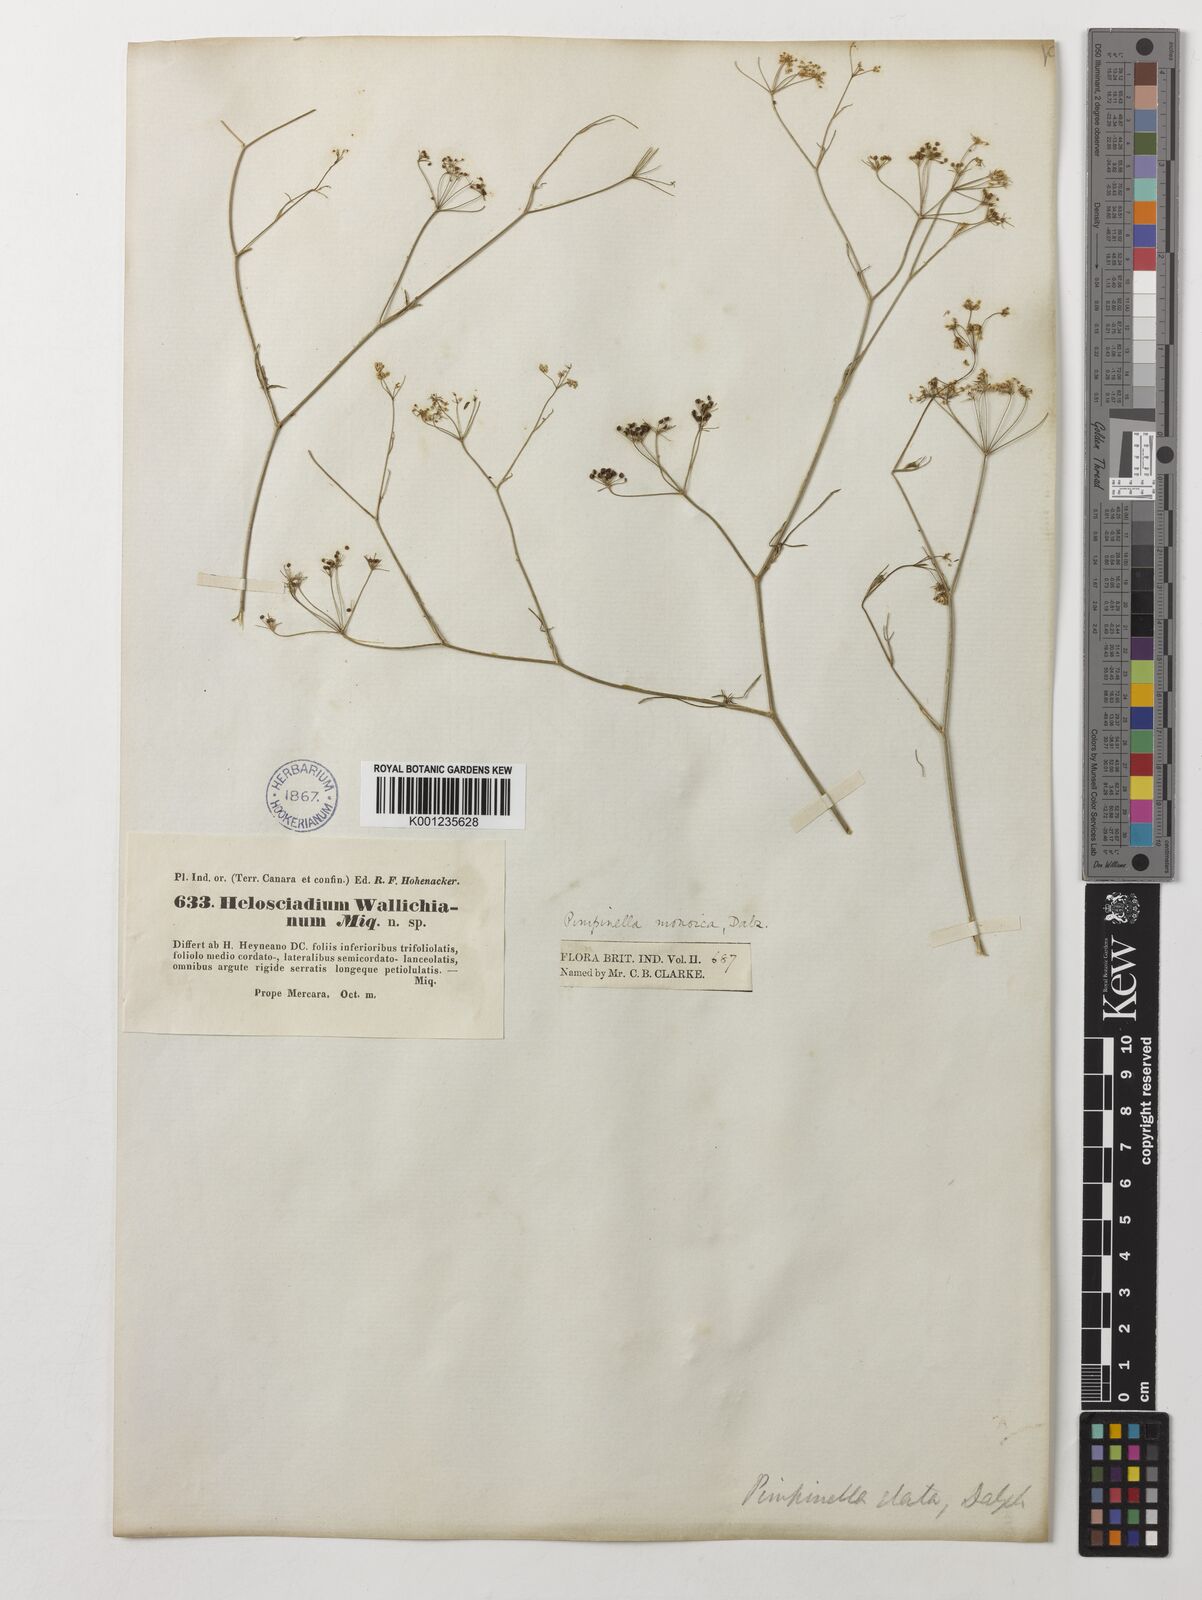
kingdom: Plantae
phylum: Tracheophyta
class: Magnoliopsida
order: Apiales
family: Apiaceae
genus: Pimpinella
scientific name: Pimpinella wallichiana
